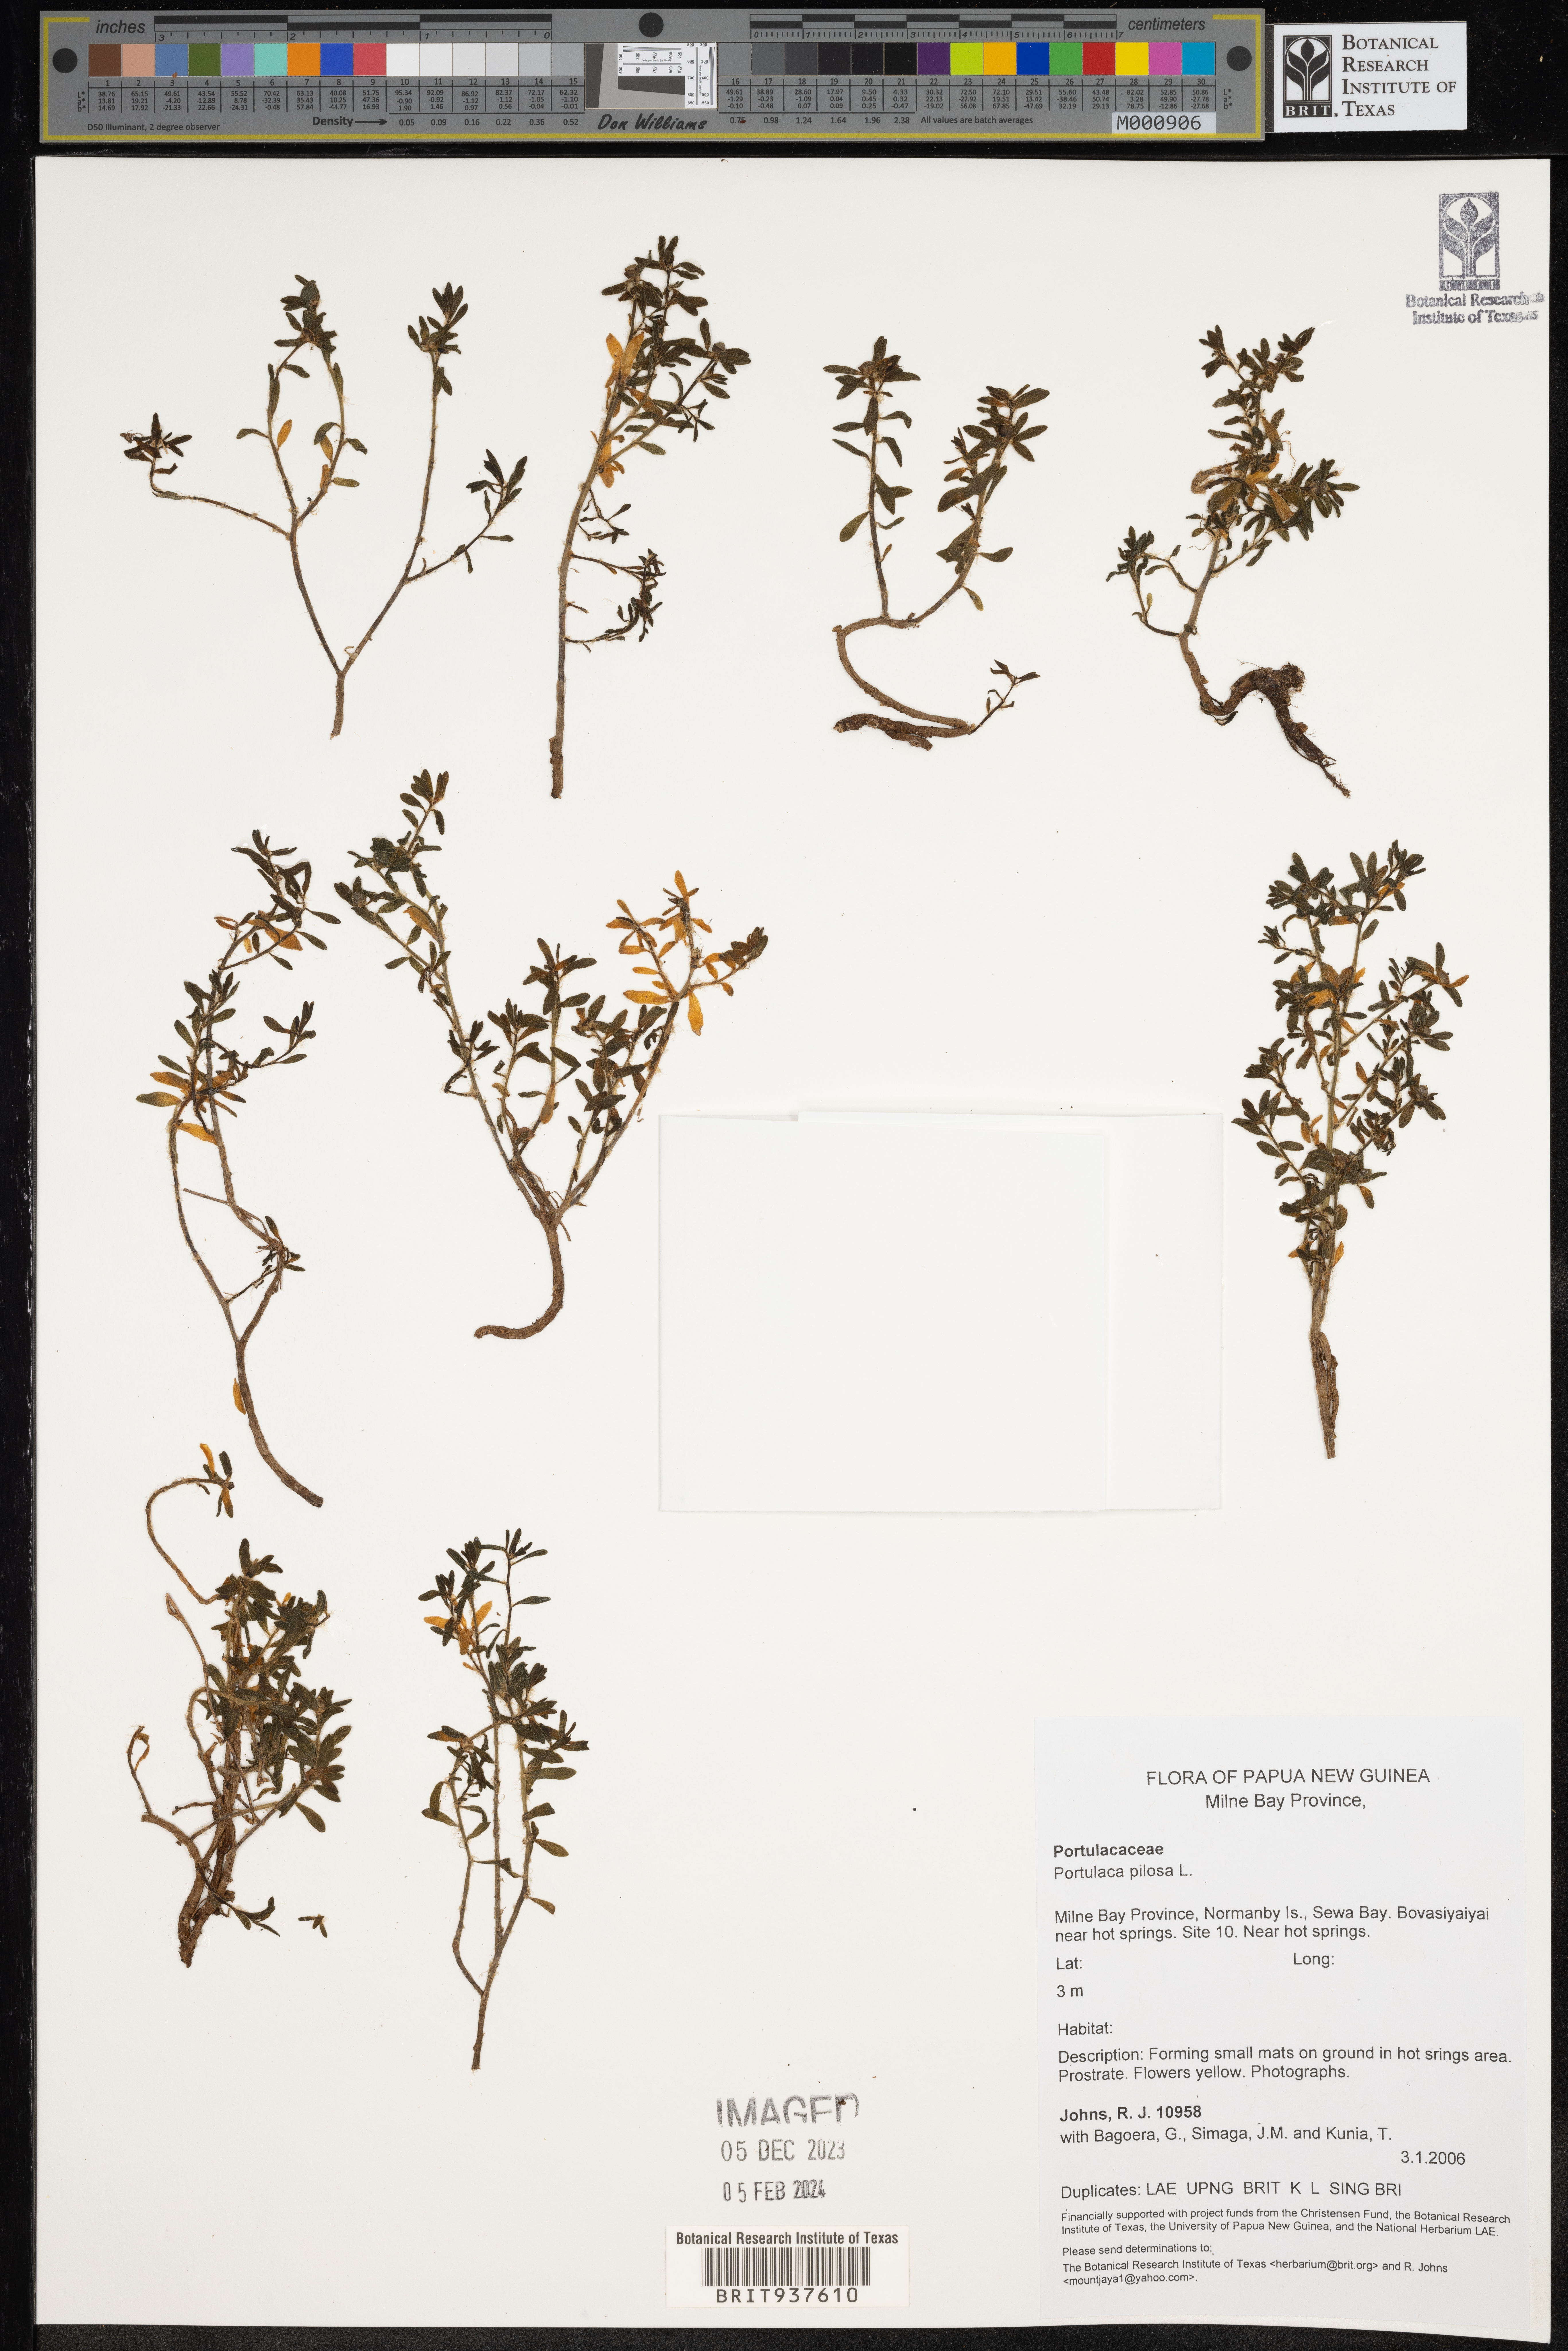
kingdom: Plantae
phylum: Tracheophyta
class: Magnoliopsida
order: Caryophyllales
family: Portulacaceae
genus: Portulaca
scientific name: Portulaca
